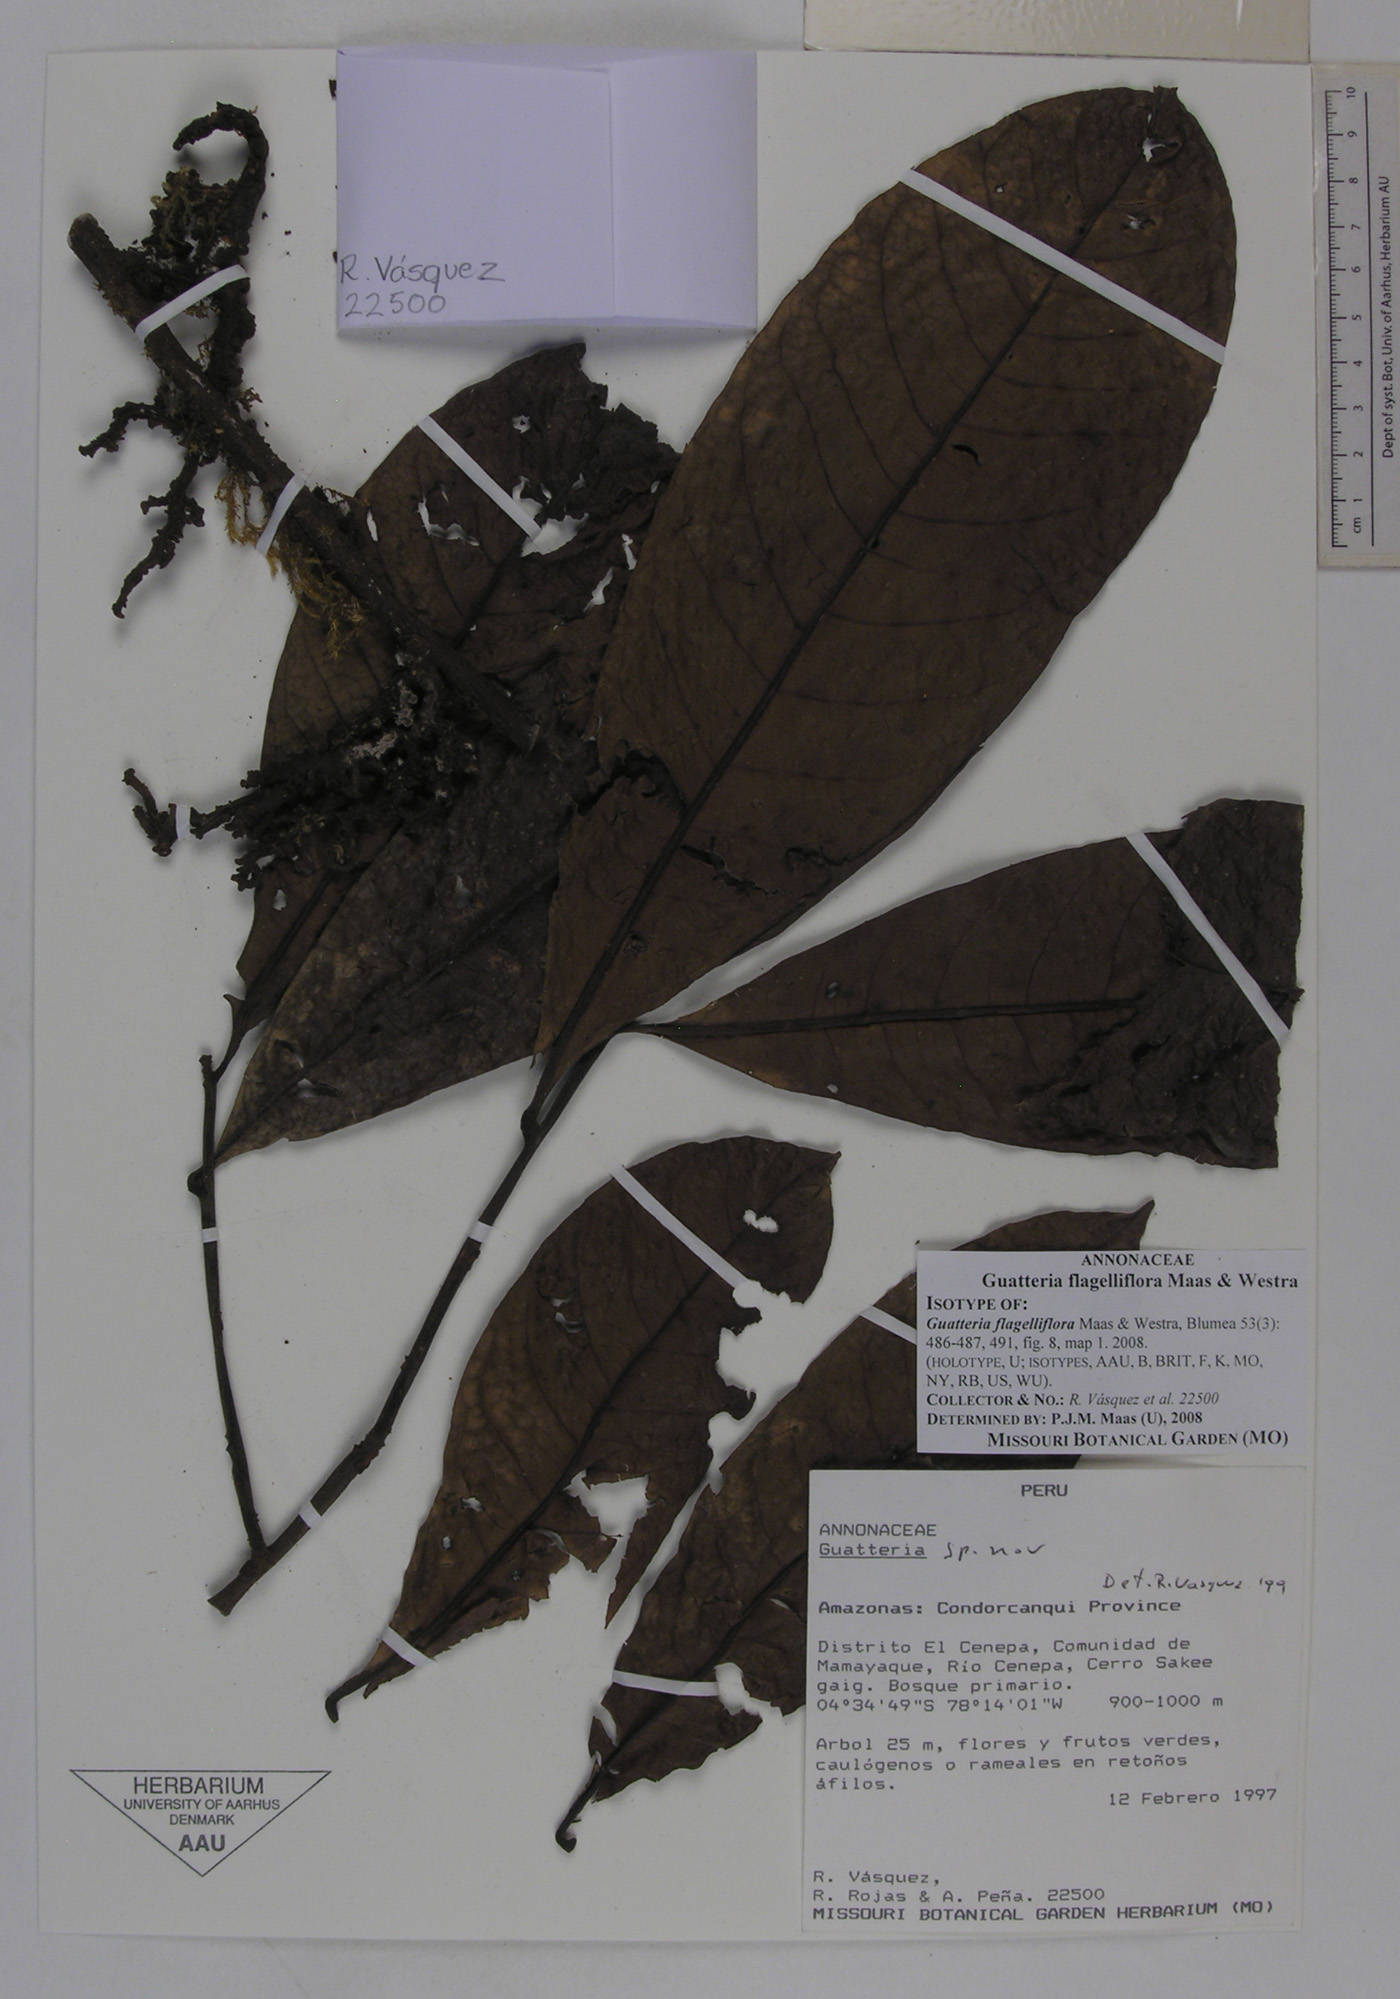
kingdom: Plantae
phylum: Tracheophyta
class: Magnoliopsida
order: Magnoliales
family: Annonaceae
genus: Guatteria
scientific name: Guatteria flagelliflora
